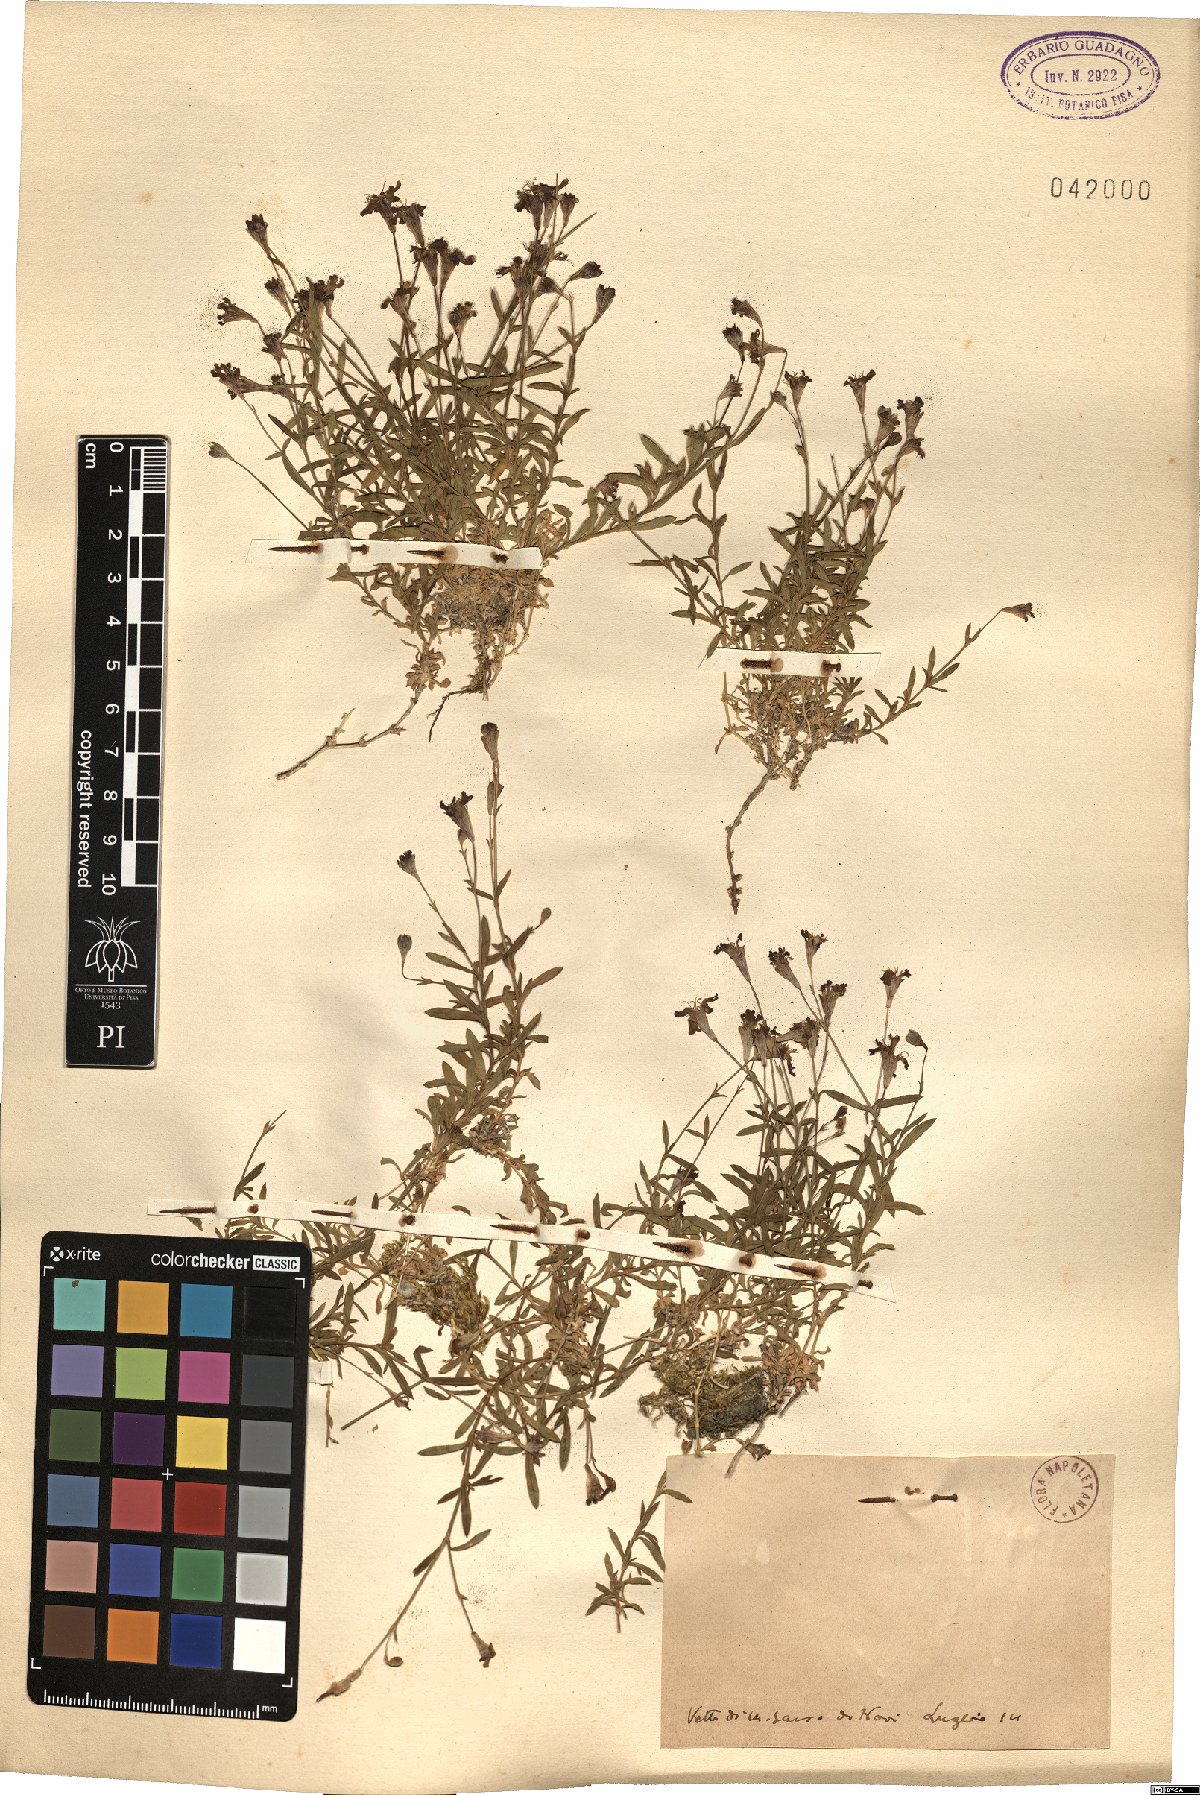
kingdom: Plantae
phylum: Tracheophyta
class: Magnoliopsida
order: Caryophyllales
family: Caryophyllaceae
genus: Silene
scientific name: Silene
